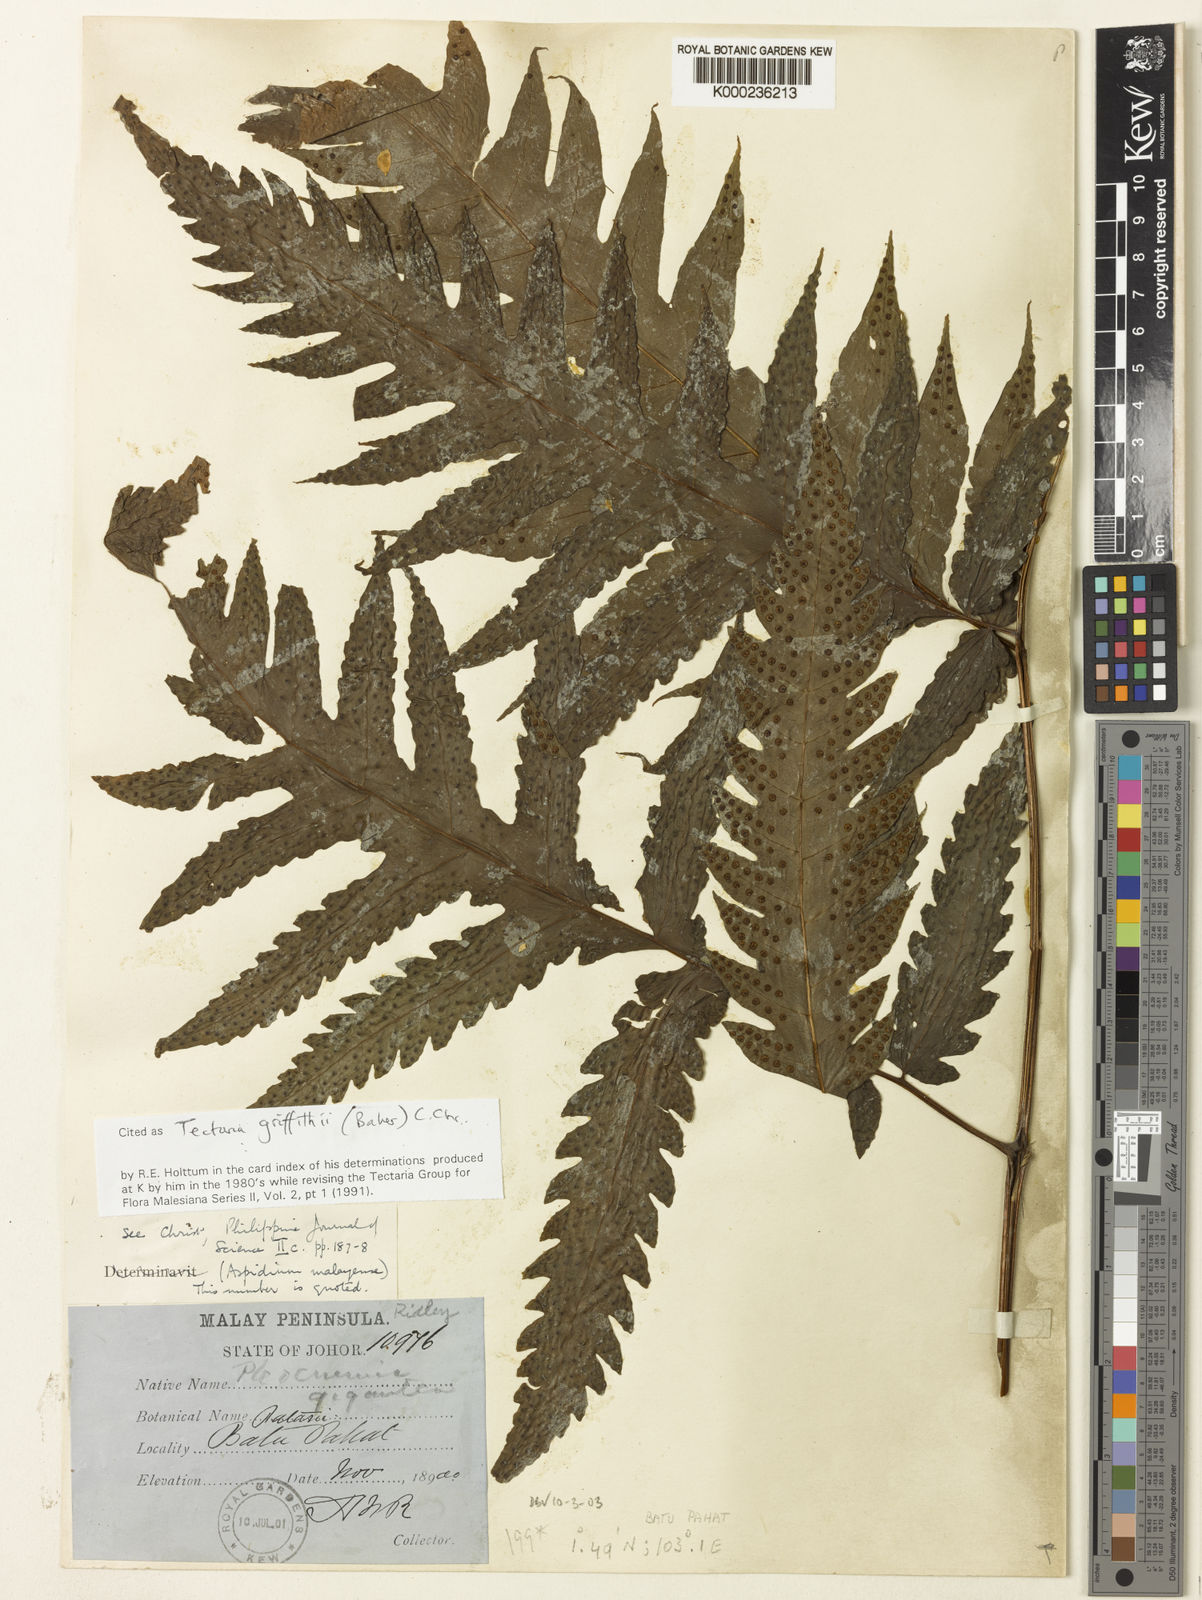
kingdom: Plantae
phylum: Tracheophyta
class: Polypodiopsida
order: Polypodiales
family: Tectariaceae
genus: Tectaria
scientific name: Tectaria multicaudata
